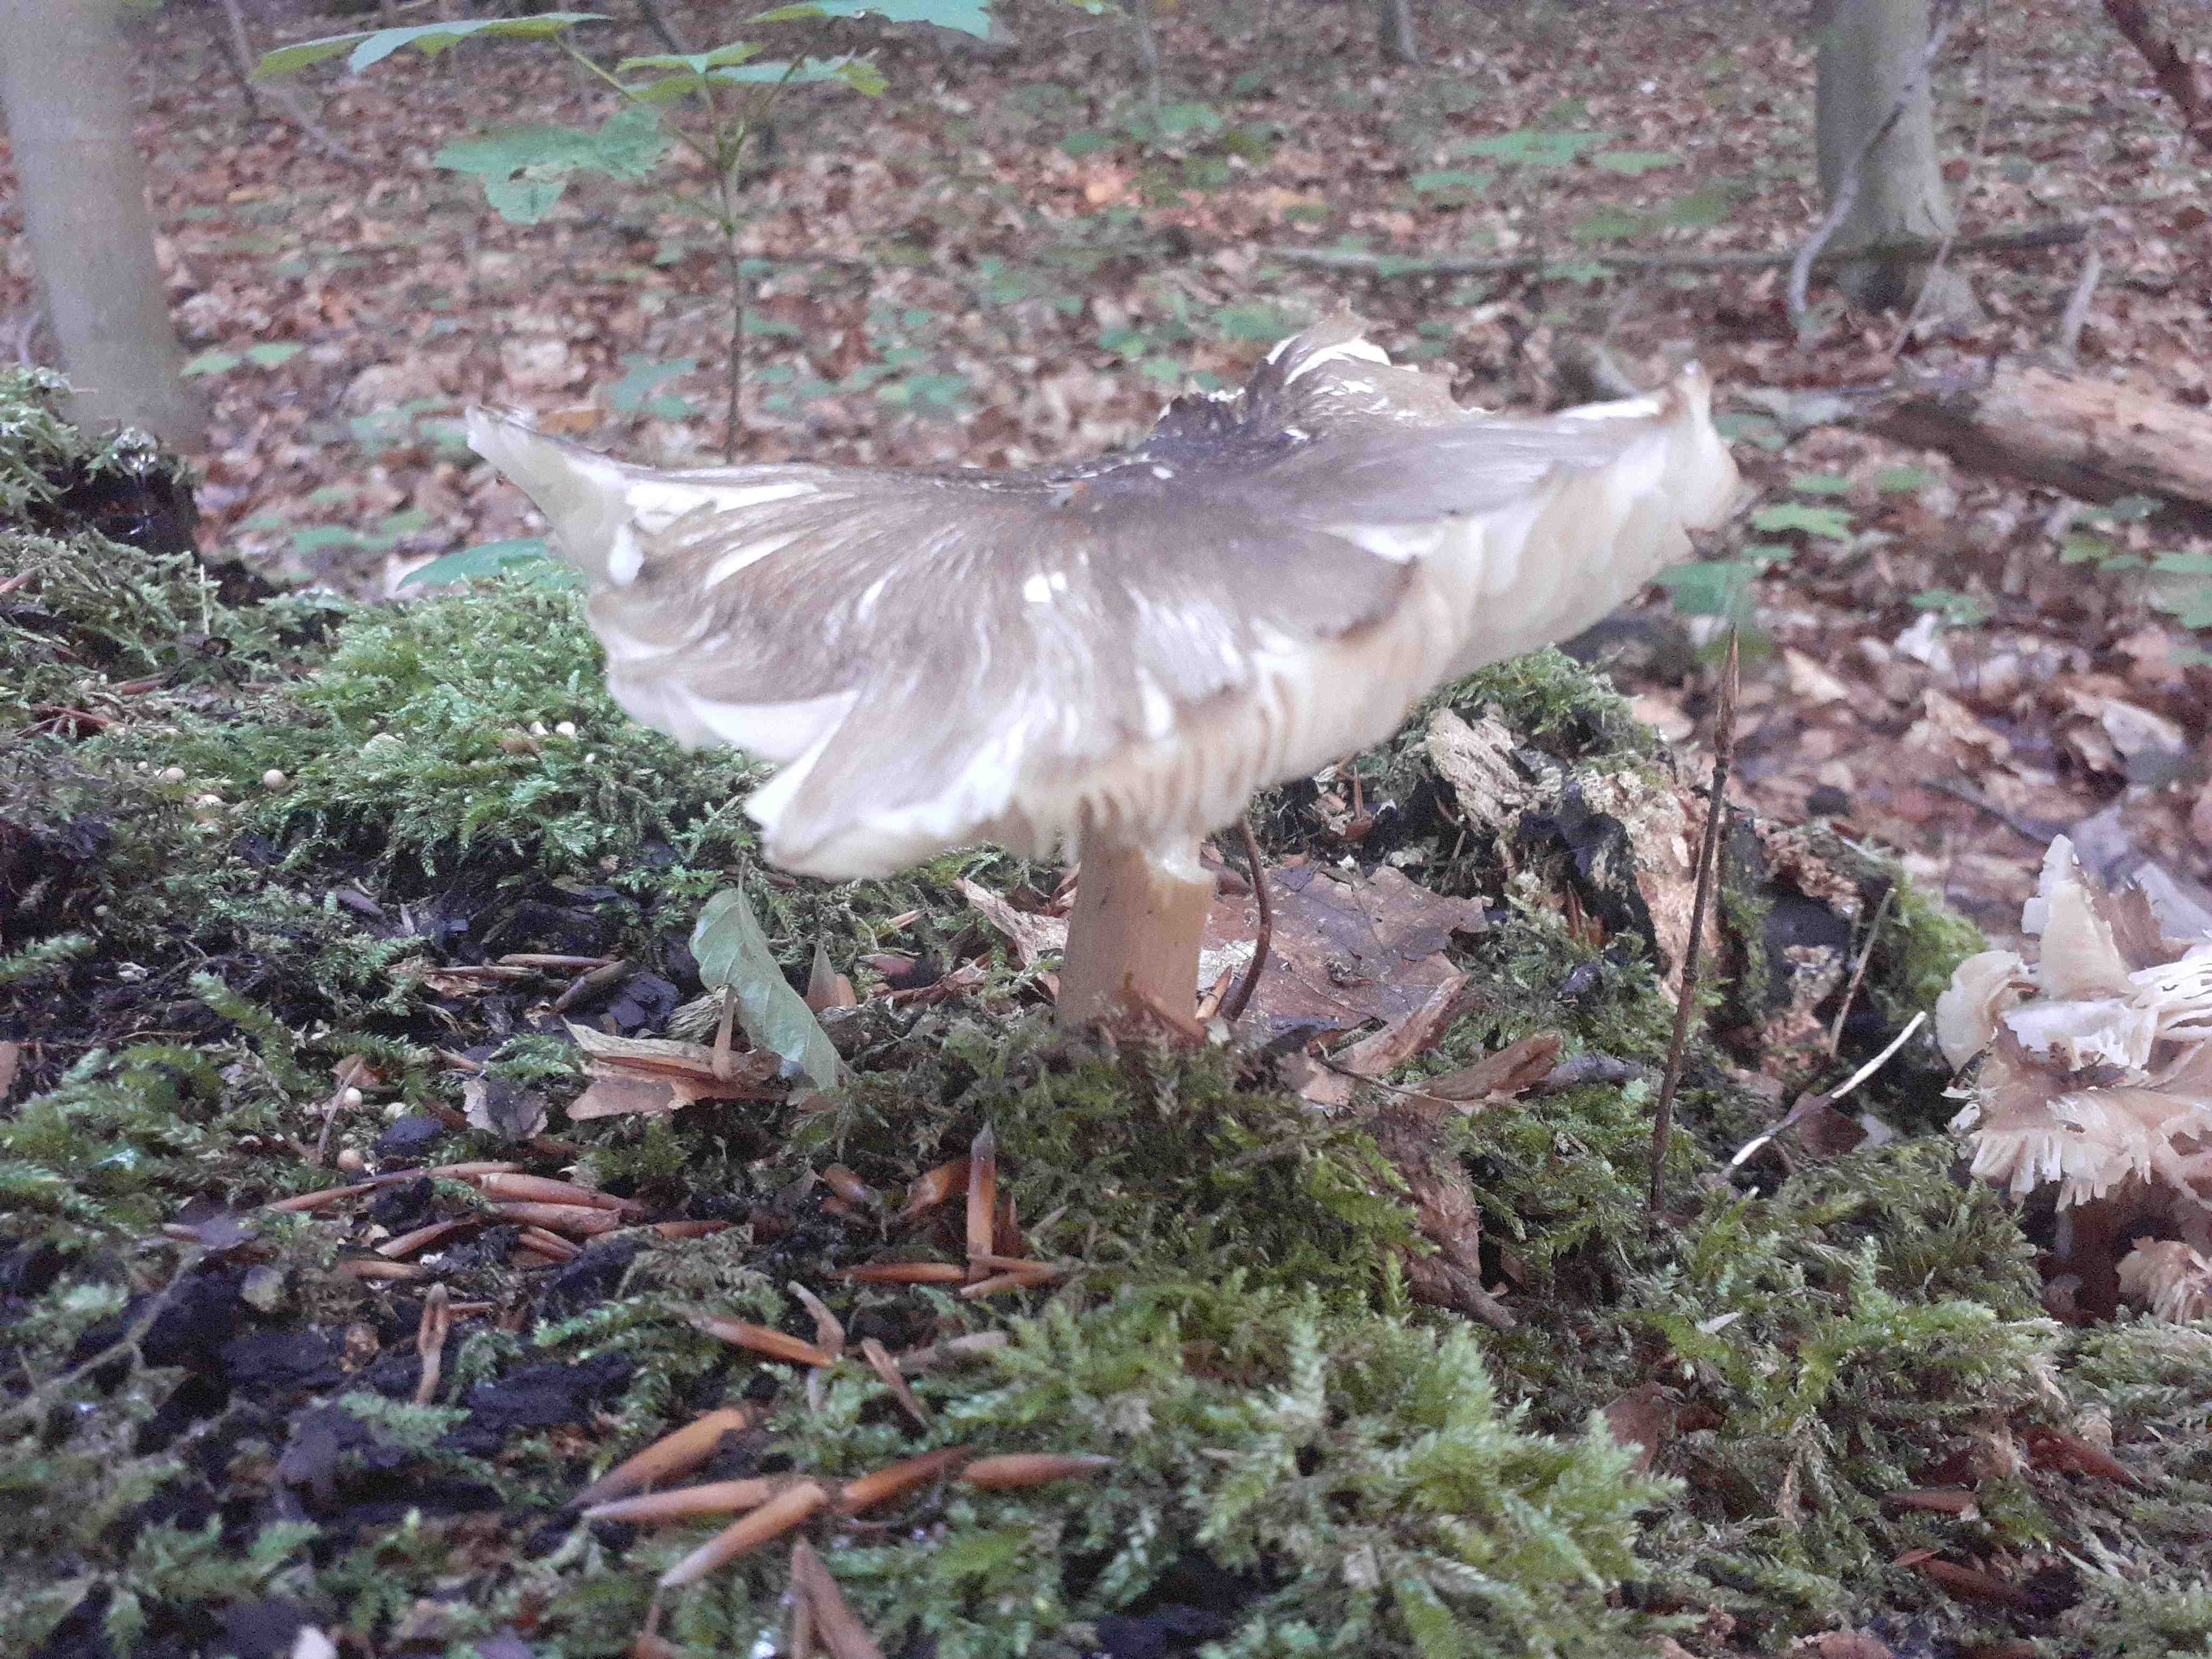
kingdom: Fungi
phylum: Basidiomycota
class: Agaricomycetes
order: Agaricales
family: Tricholomataceae
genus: Megacollybia
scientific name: Megacollybia platyphylla
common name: bredbladet væbnerhat
